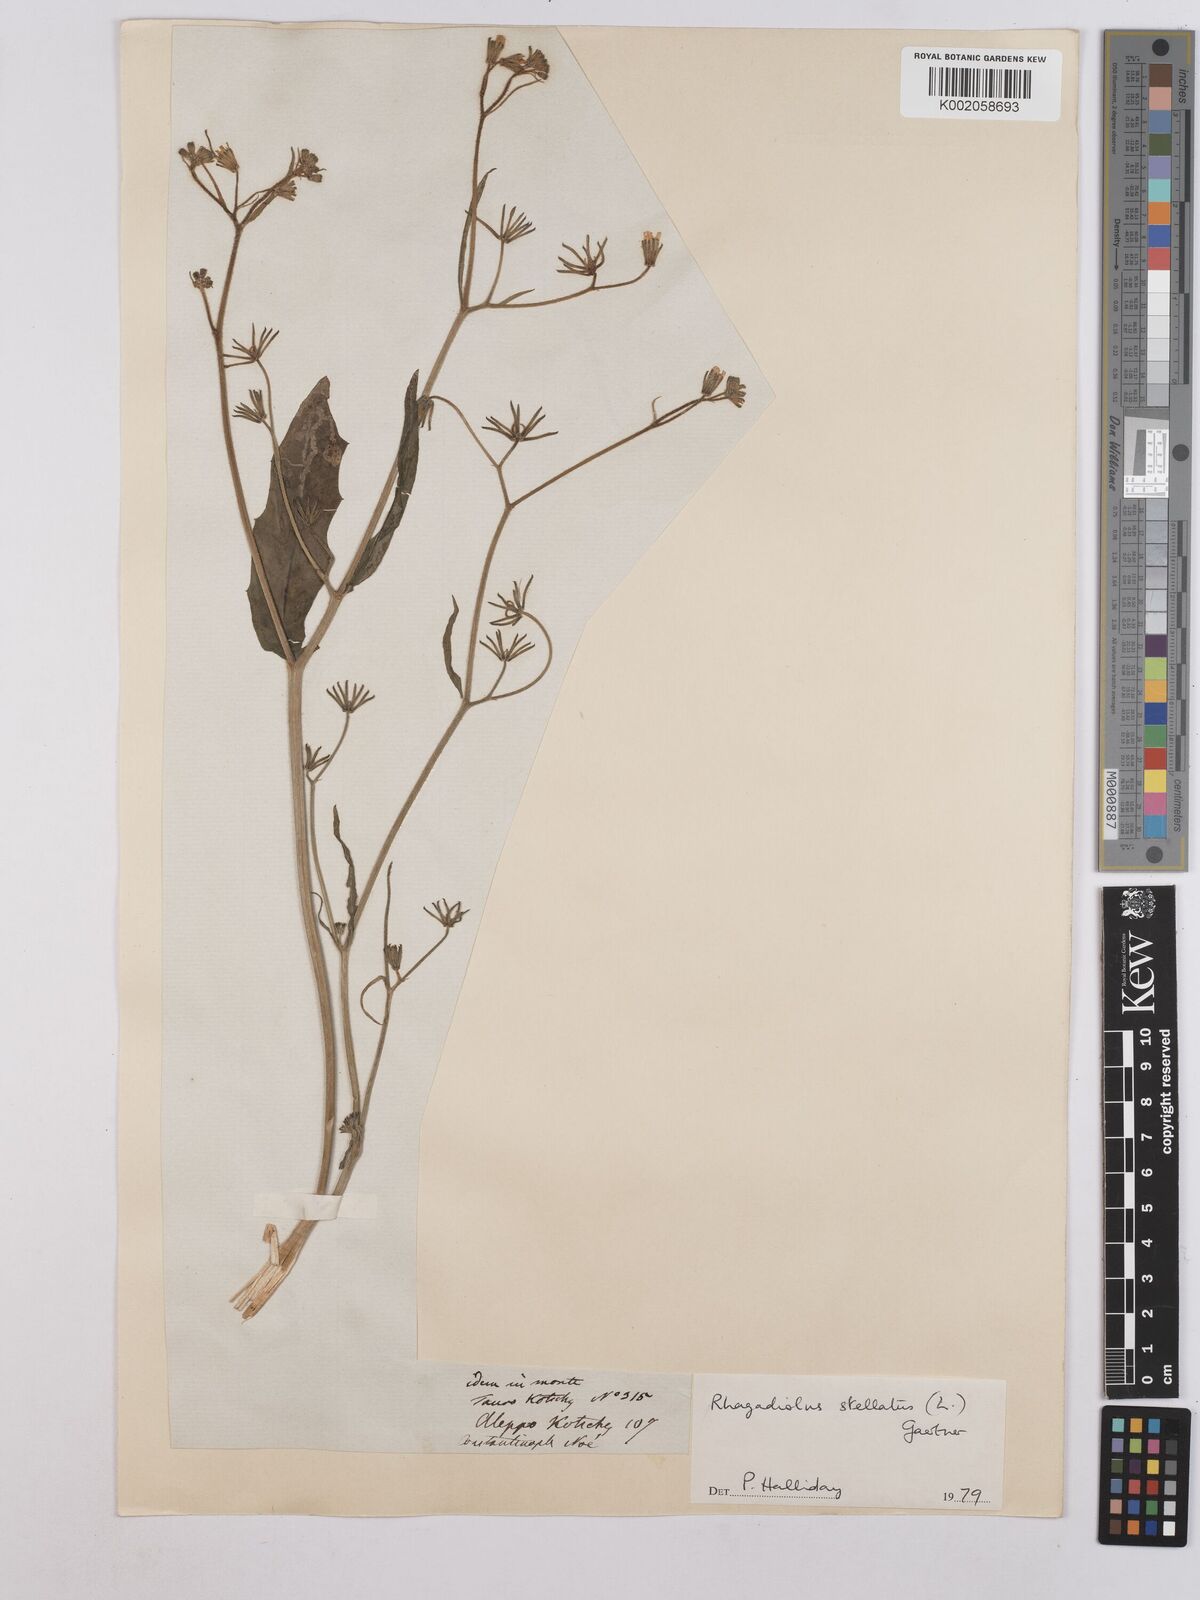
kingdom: Plantae
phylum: Tracheophyta
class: Magnoliopsida
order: Asterales
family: Asteraceae
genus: Rhagadiolus
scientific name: Rhagadiolus stellatus
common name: Star hawkbit
